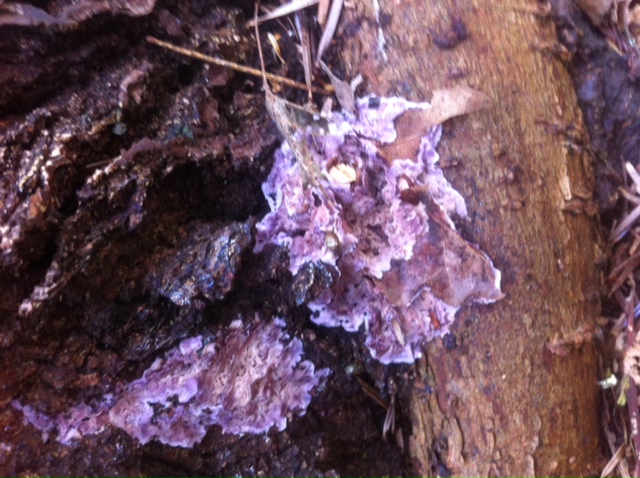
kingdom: Fungi
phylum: Basidiomycota
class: Agaricomycetes
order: Agaricales
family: Cyphellaceae
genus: Chondrostereum
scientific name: Chondrostereum purpureum
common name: purpurlædersvamp
